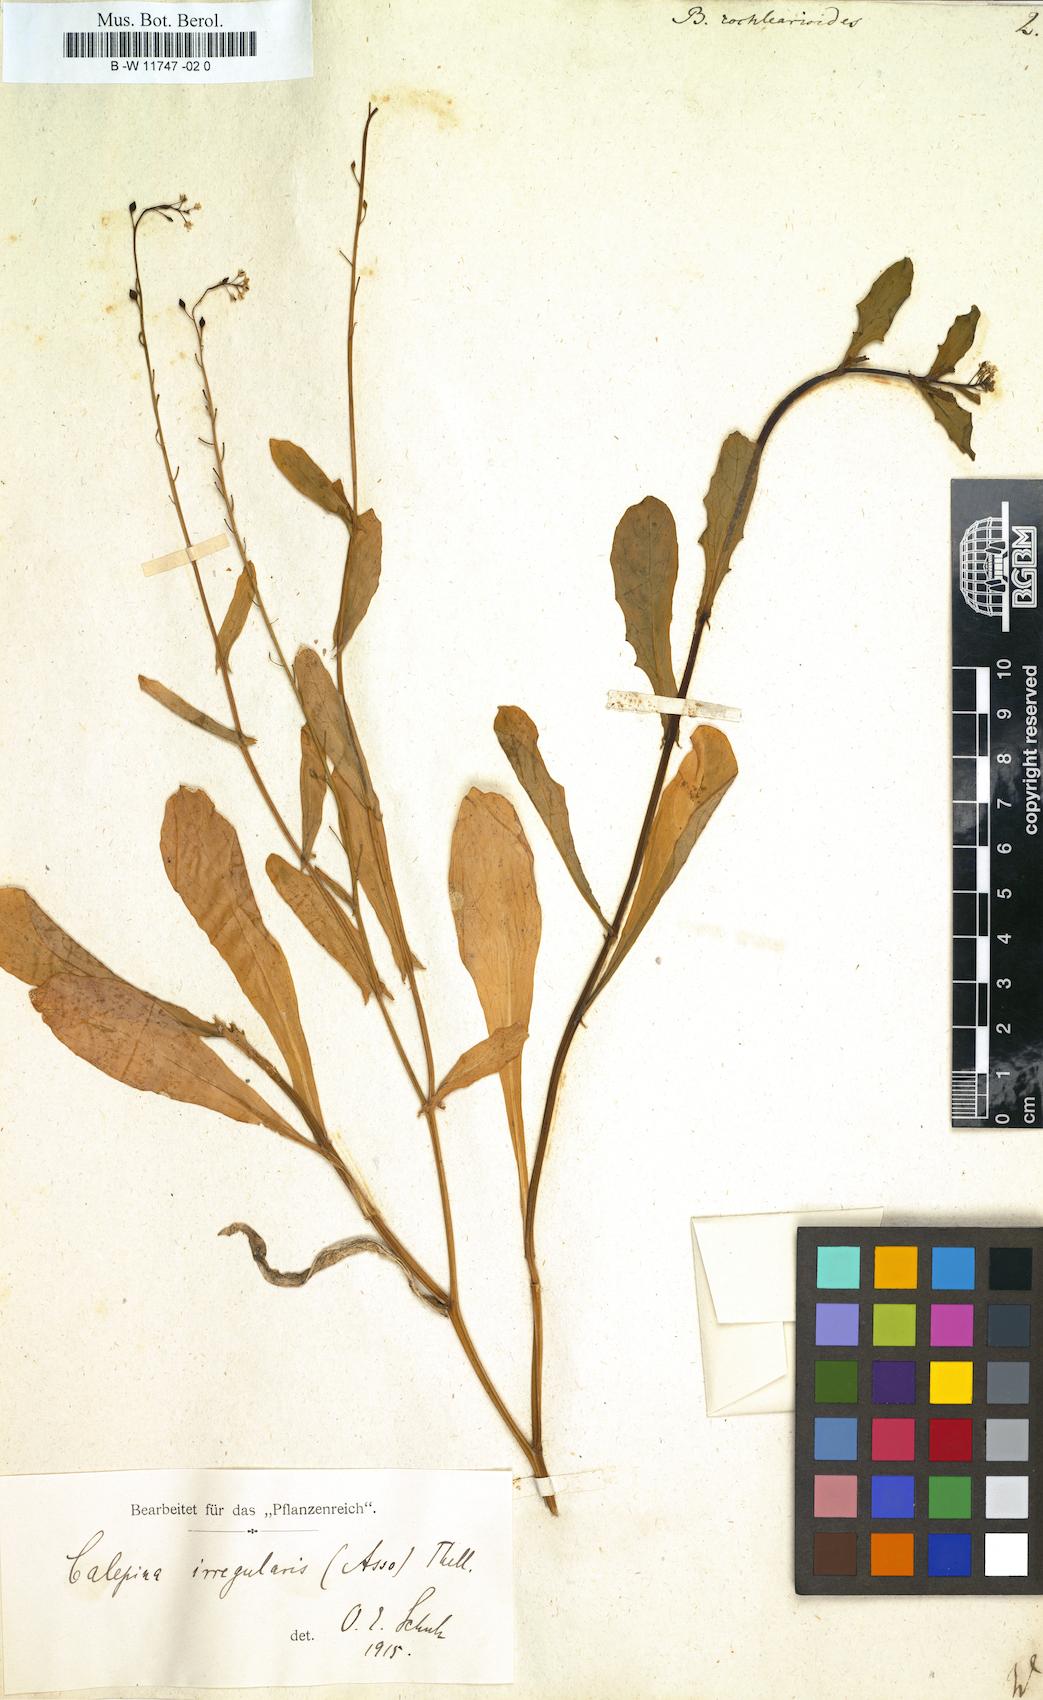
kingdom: Plantae
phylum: Tracheophyta
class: Magnoliopsida
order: Brassicales
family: Brassicaceae
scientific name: Brassicaceae
